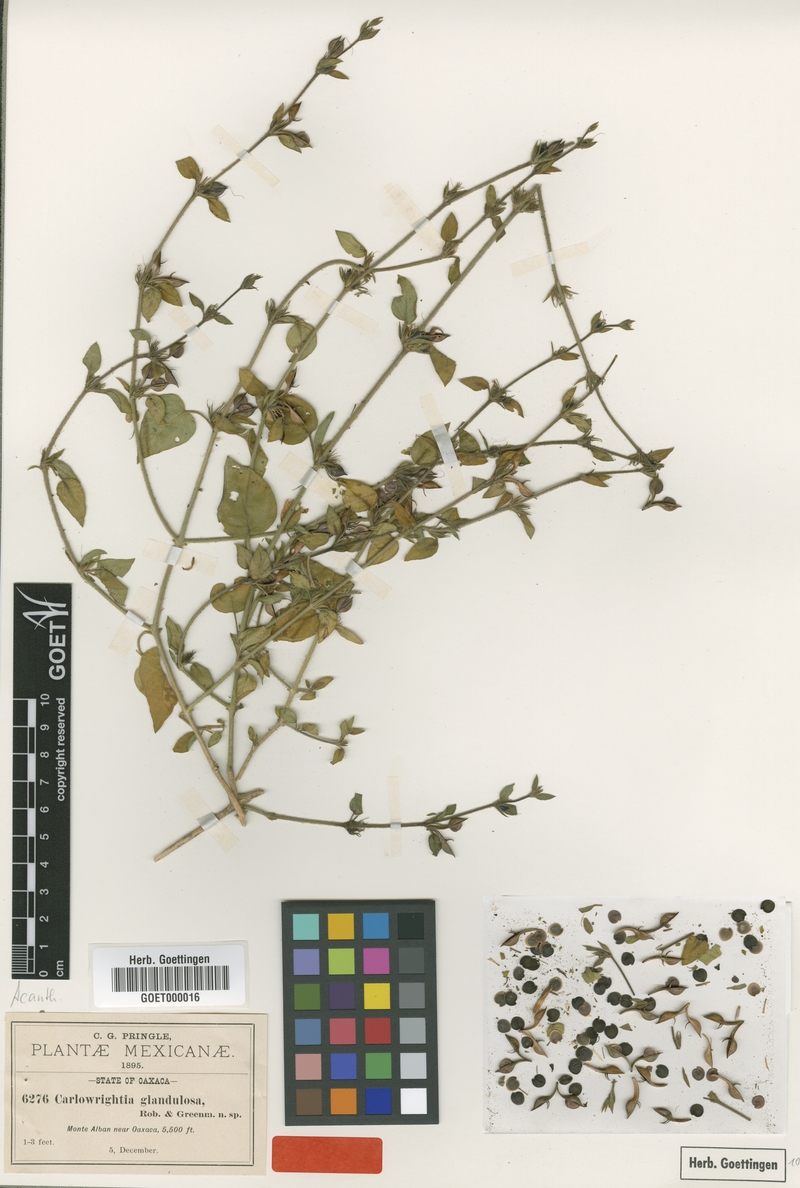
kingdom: Plantae
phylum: Tracheophyta
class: Magnoliopsida
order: Lamiales
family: Acanthaceae
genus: Carlowrightia
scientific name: Carlowrightia neesiana
